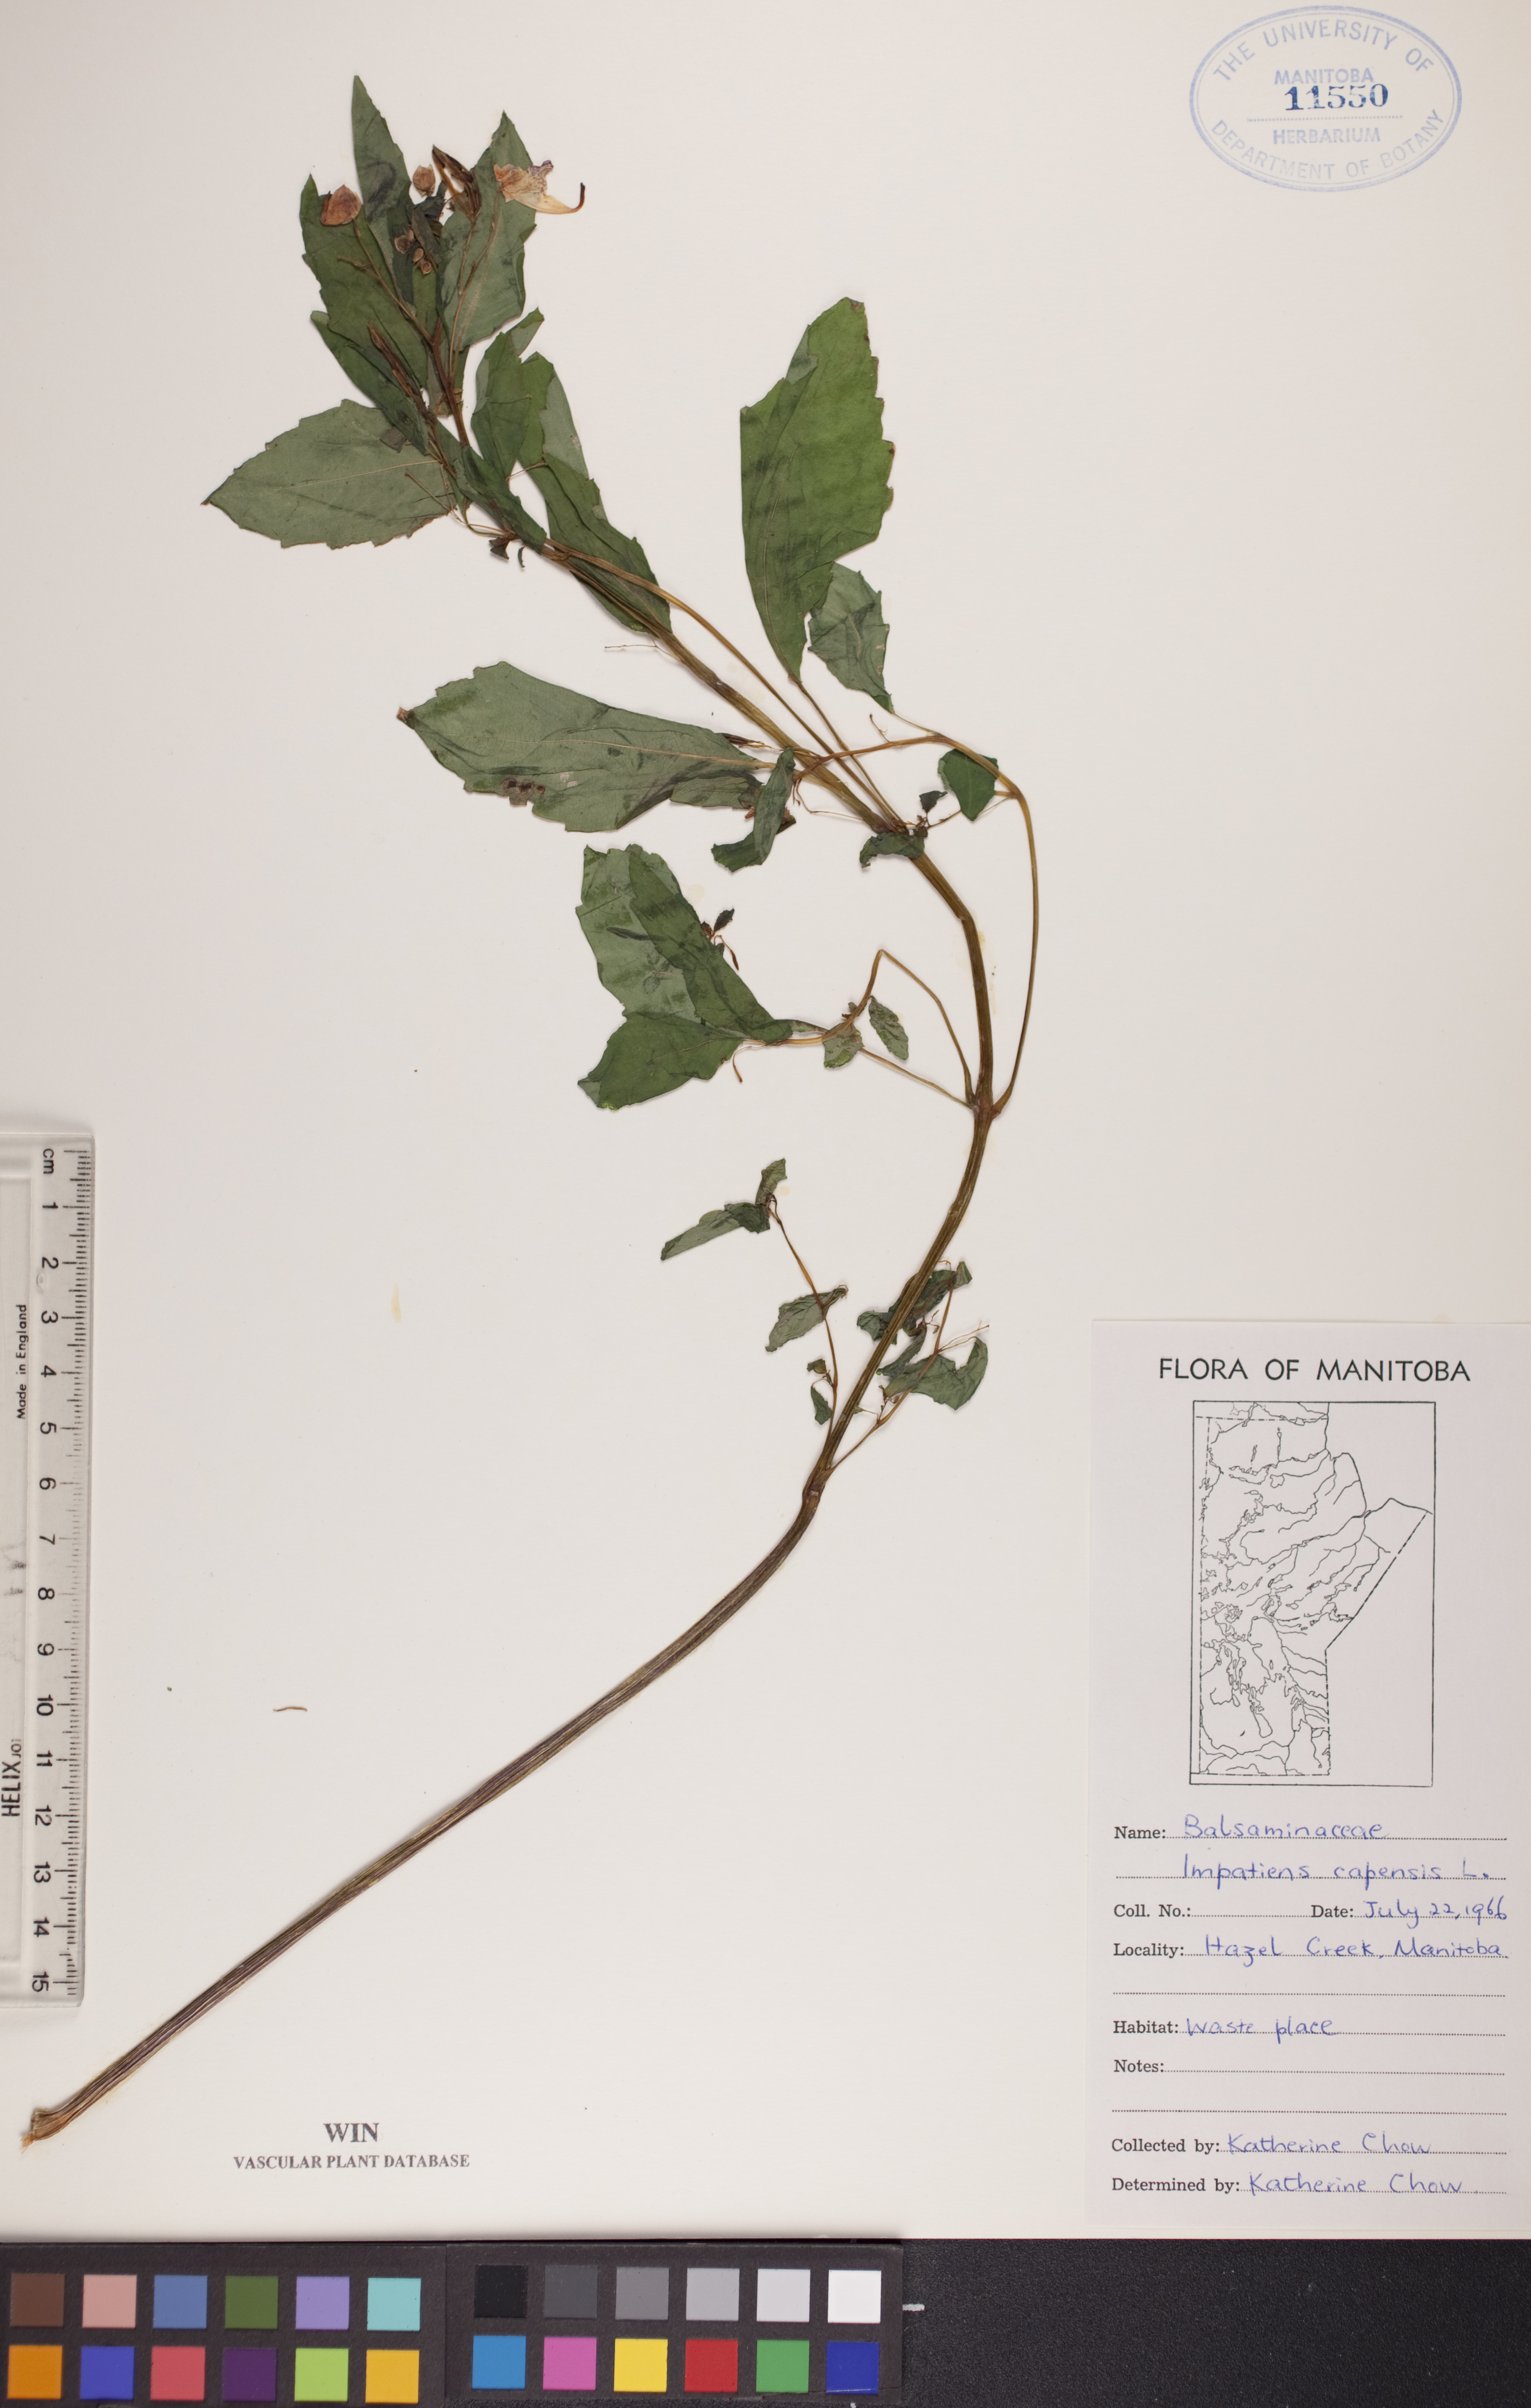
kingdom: Plantae
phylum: Tracheophyta
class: Magnoliopsida
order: Ericales
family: Balsaminaceae
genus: Impatiens
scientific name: Impatiens capensis
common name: Orange balsam
